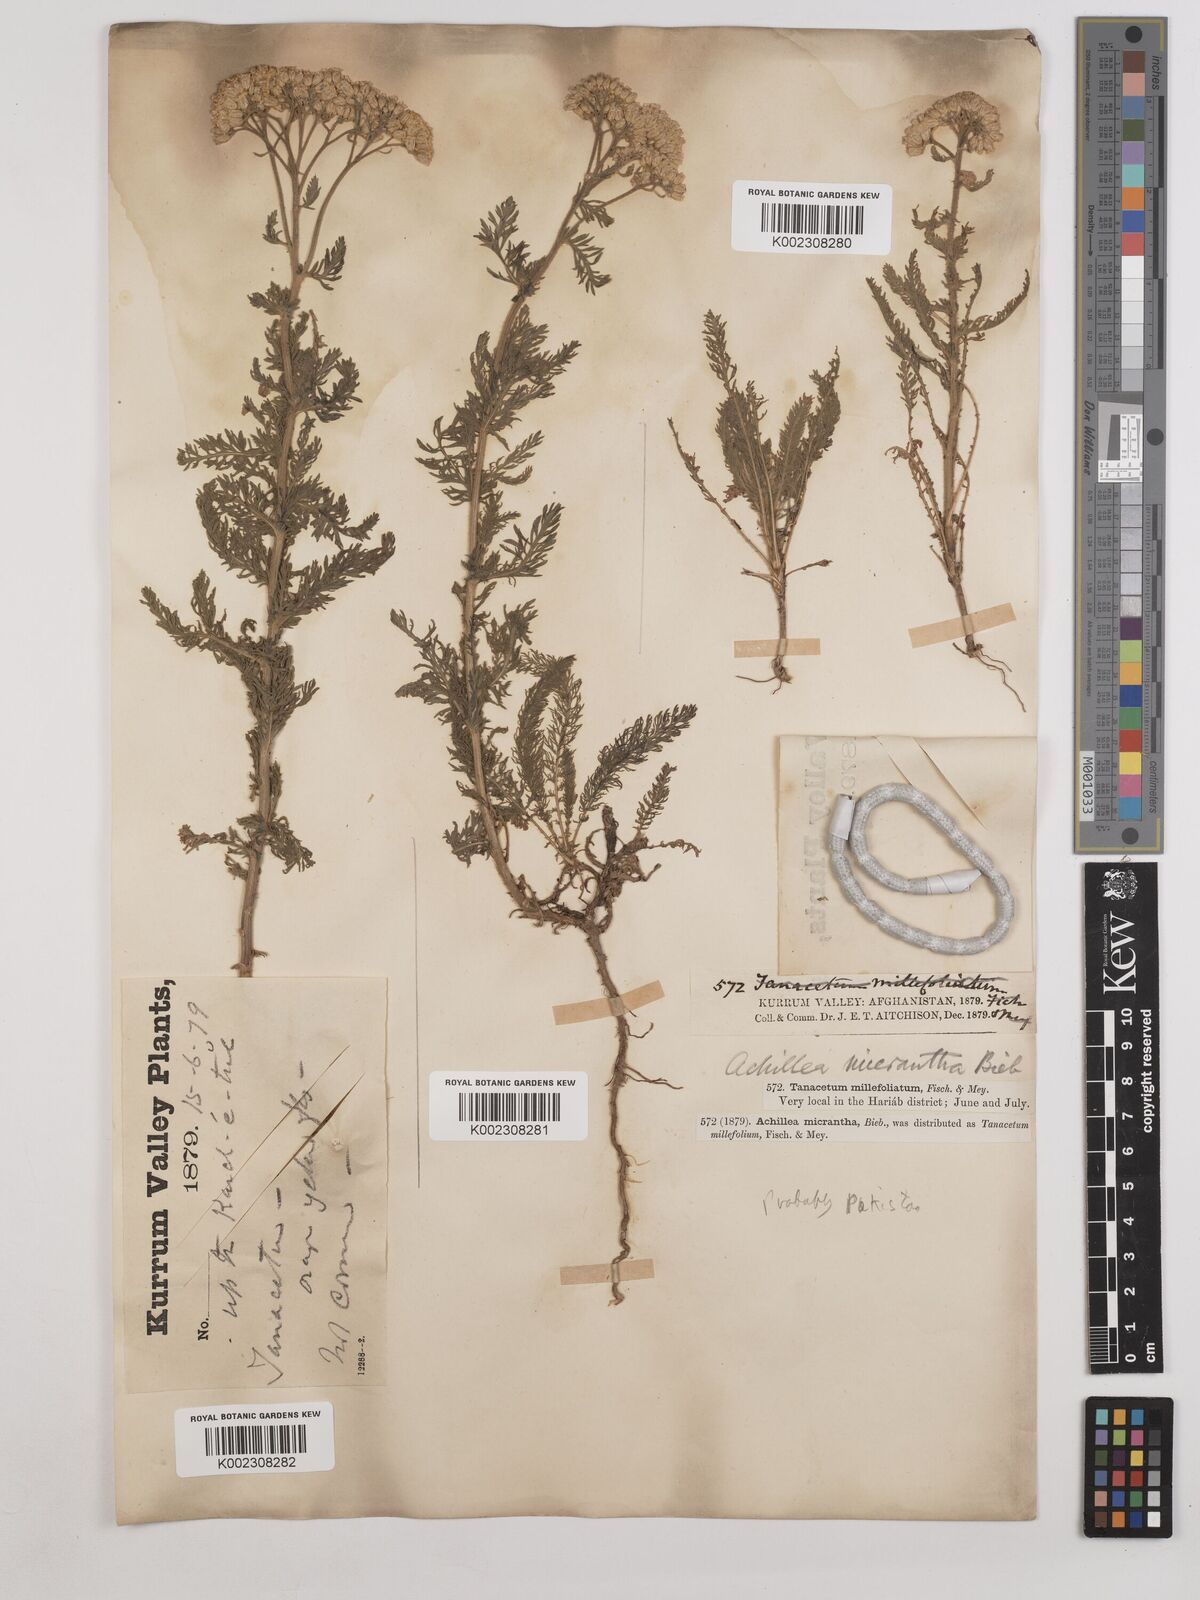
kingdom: Plantae
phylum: Tracheophyta
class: Magnoliopsida
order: Asterales
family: Asteraceae
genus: Achillea
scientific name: Achillea arabica
